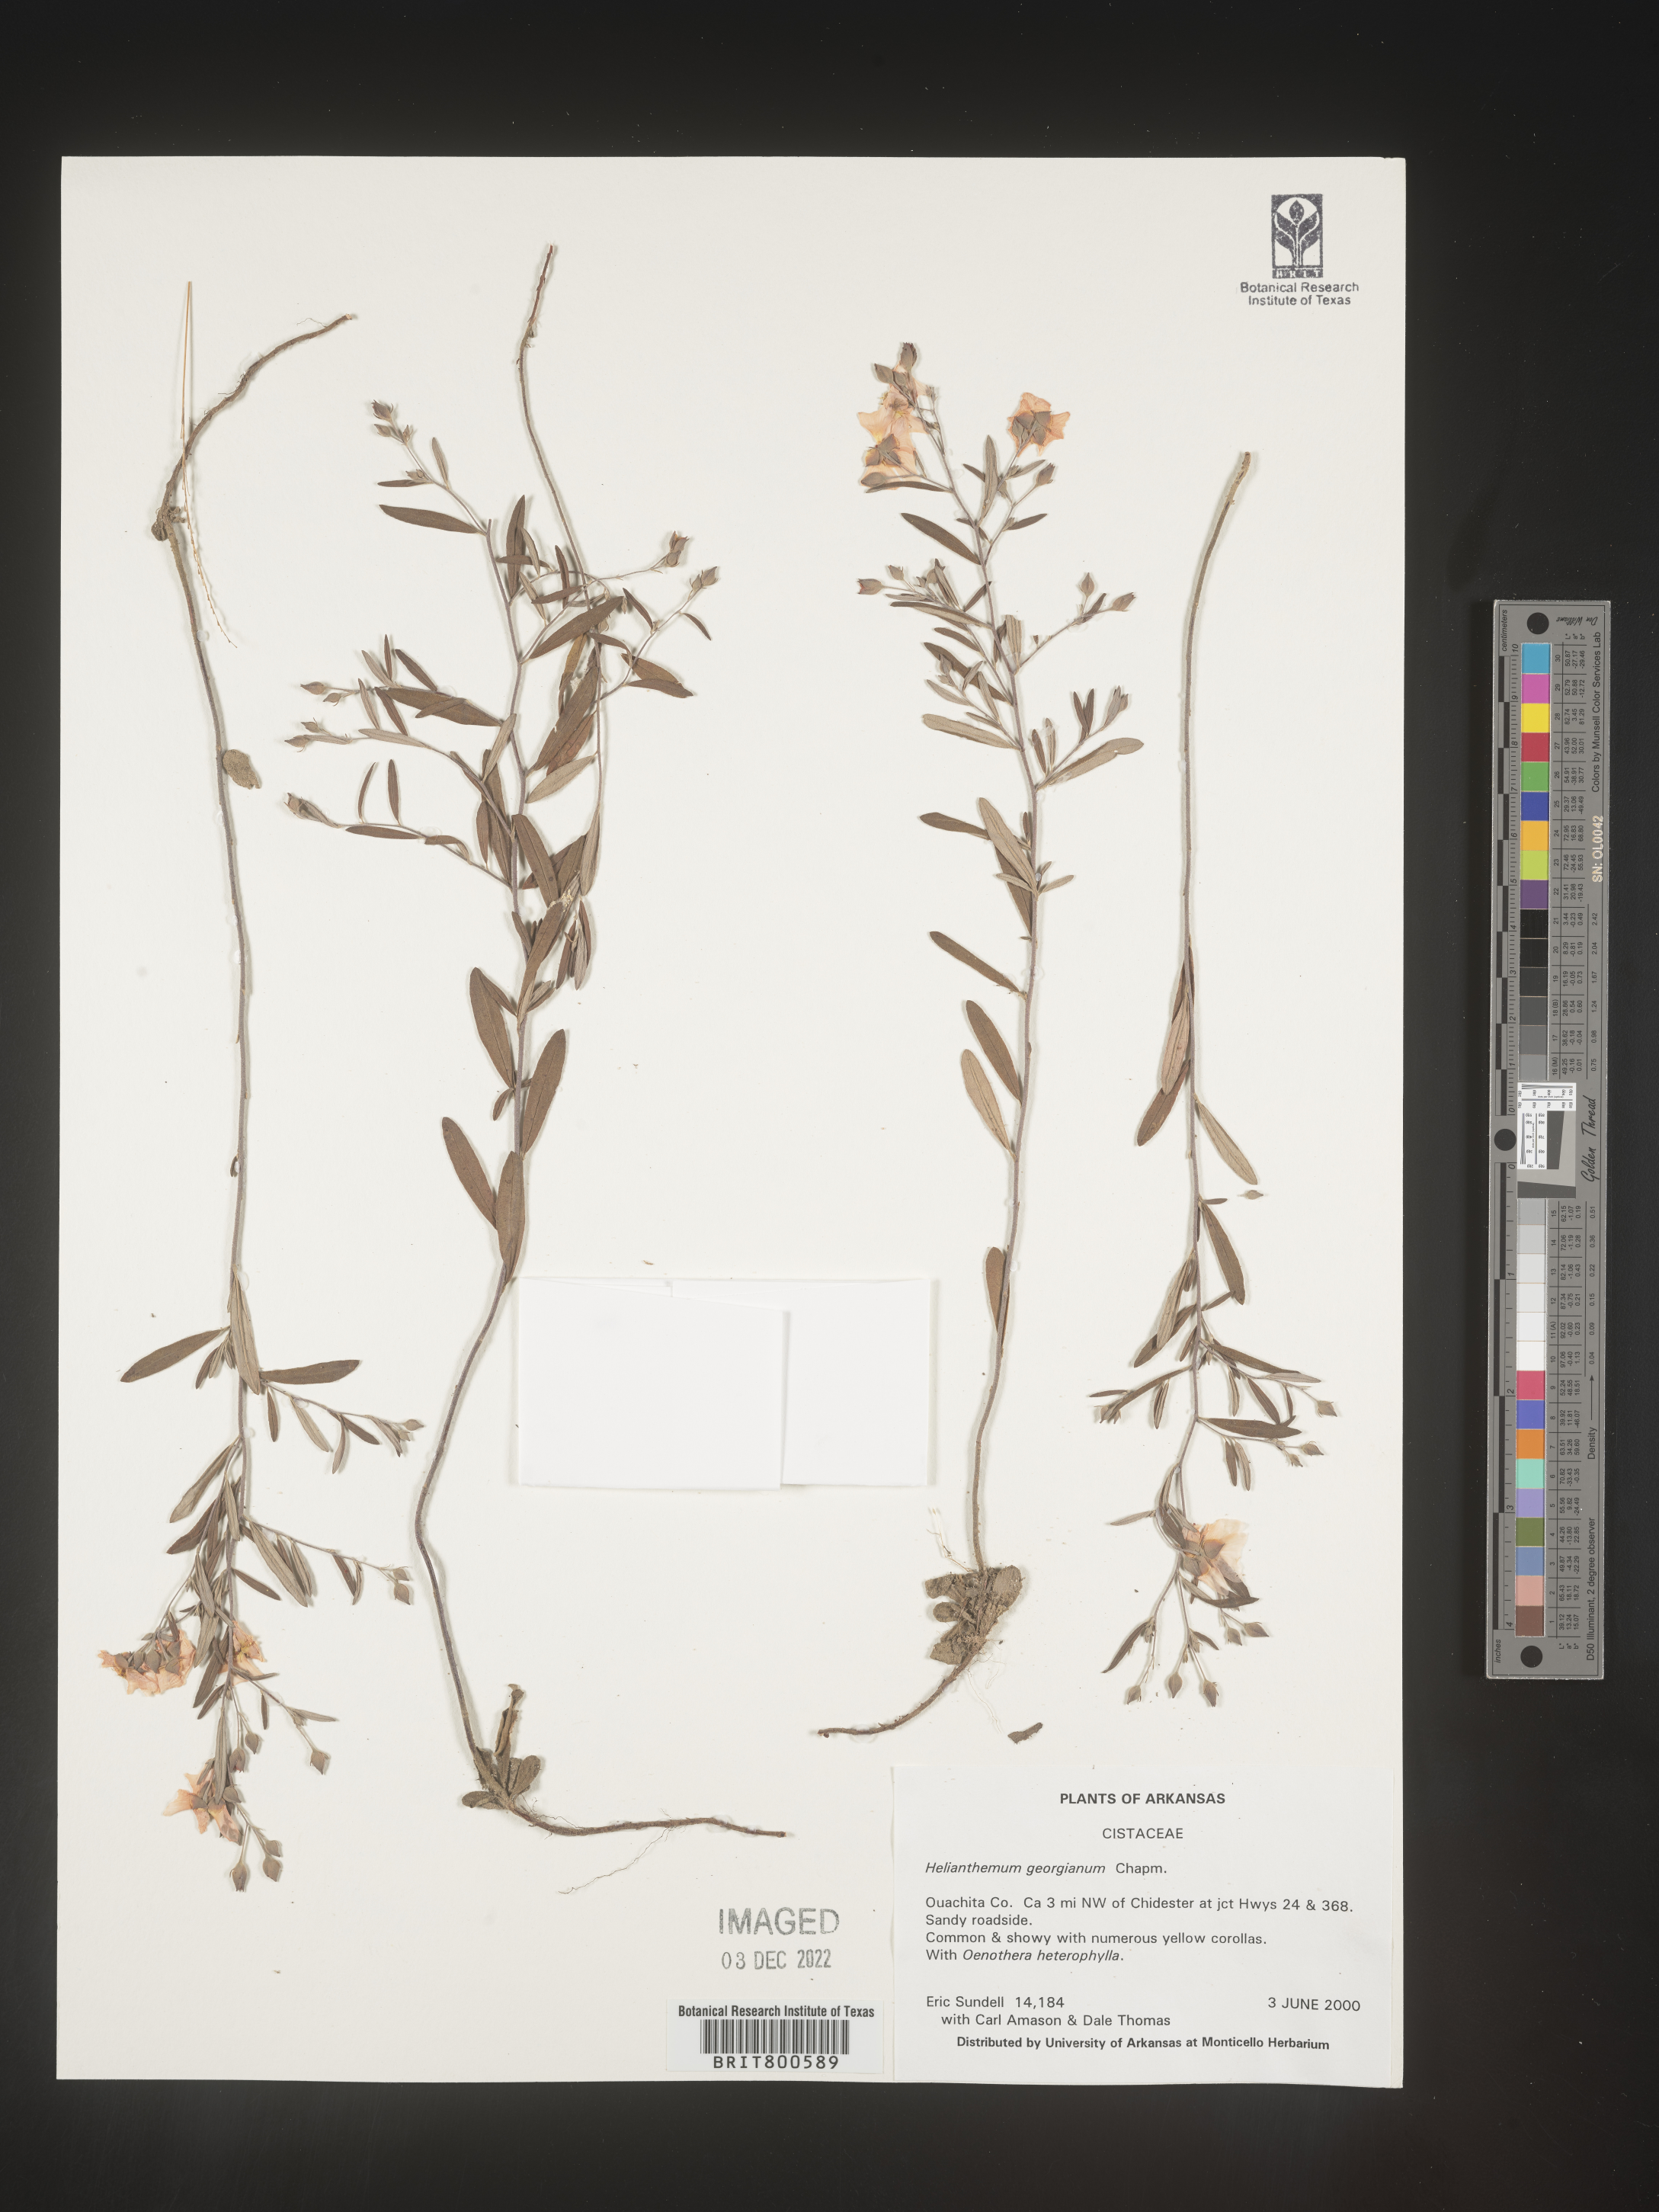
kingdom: Plantae
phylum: Tracheophyta
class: Magnoliopsida
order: Malvales
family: Cistaceae
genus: Crocanthemum
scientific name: Crocanthemum georgianum
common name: Georgia frostweed
